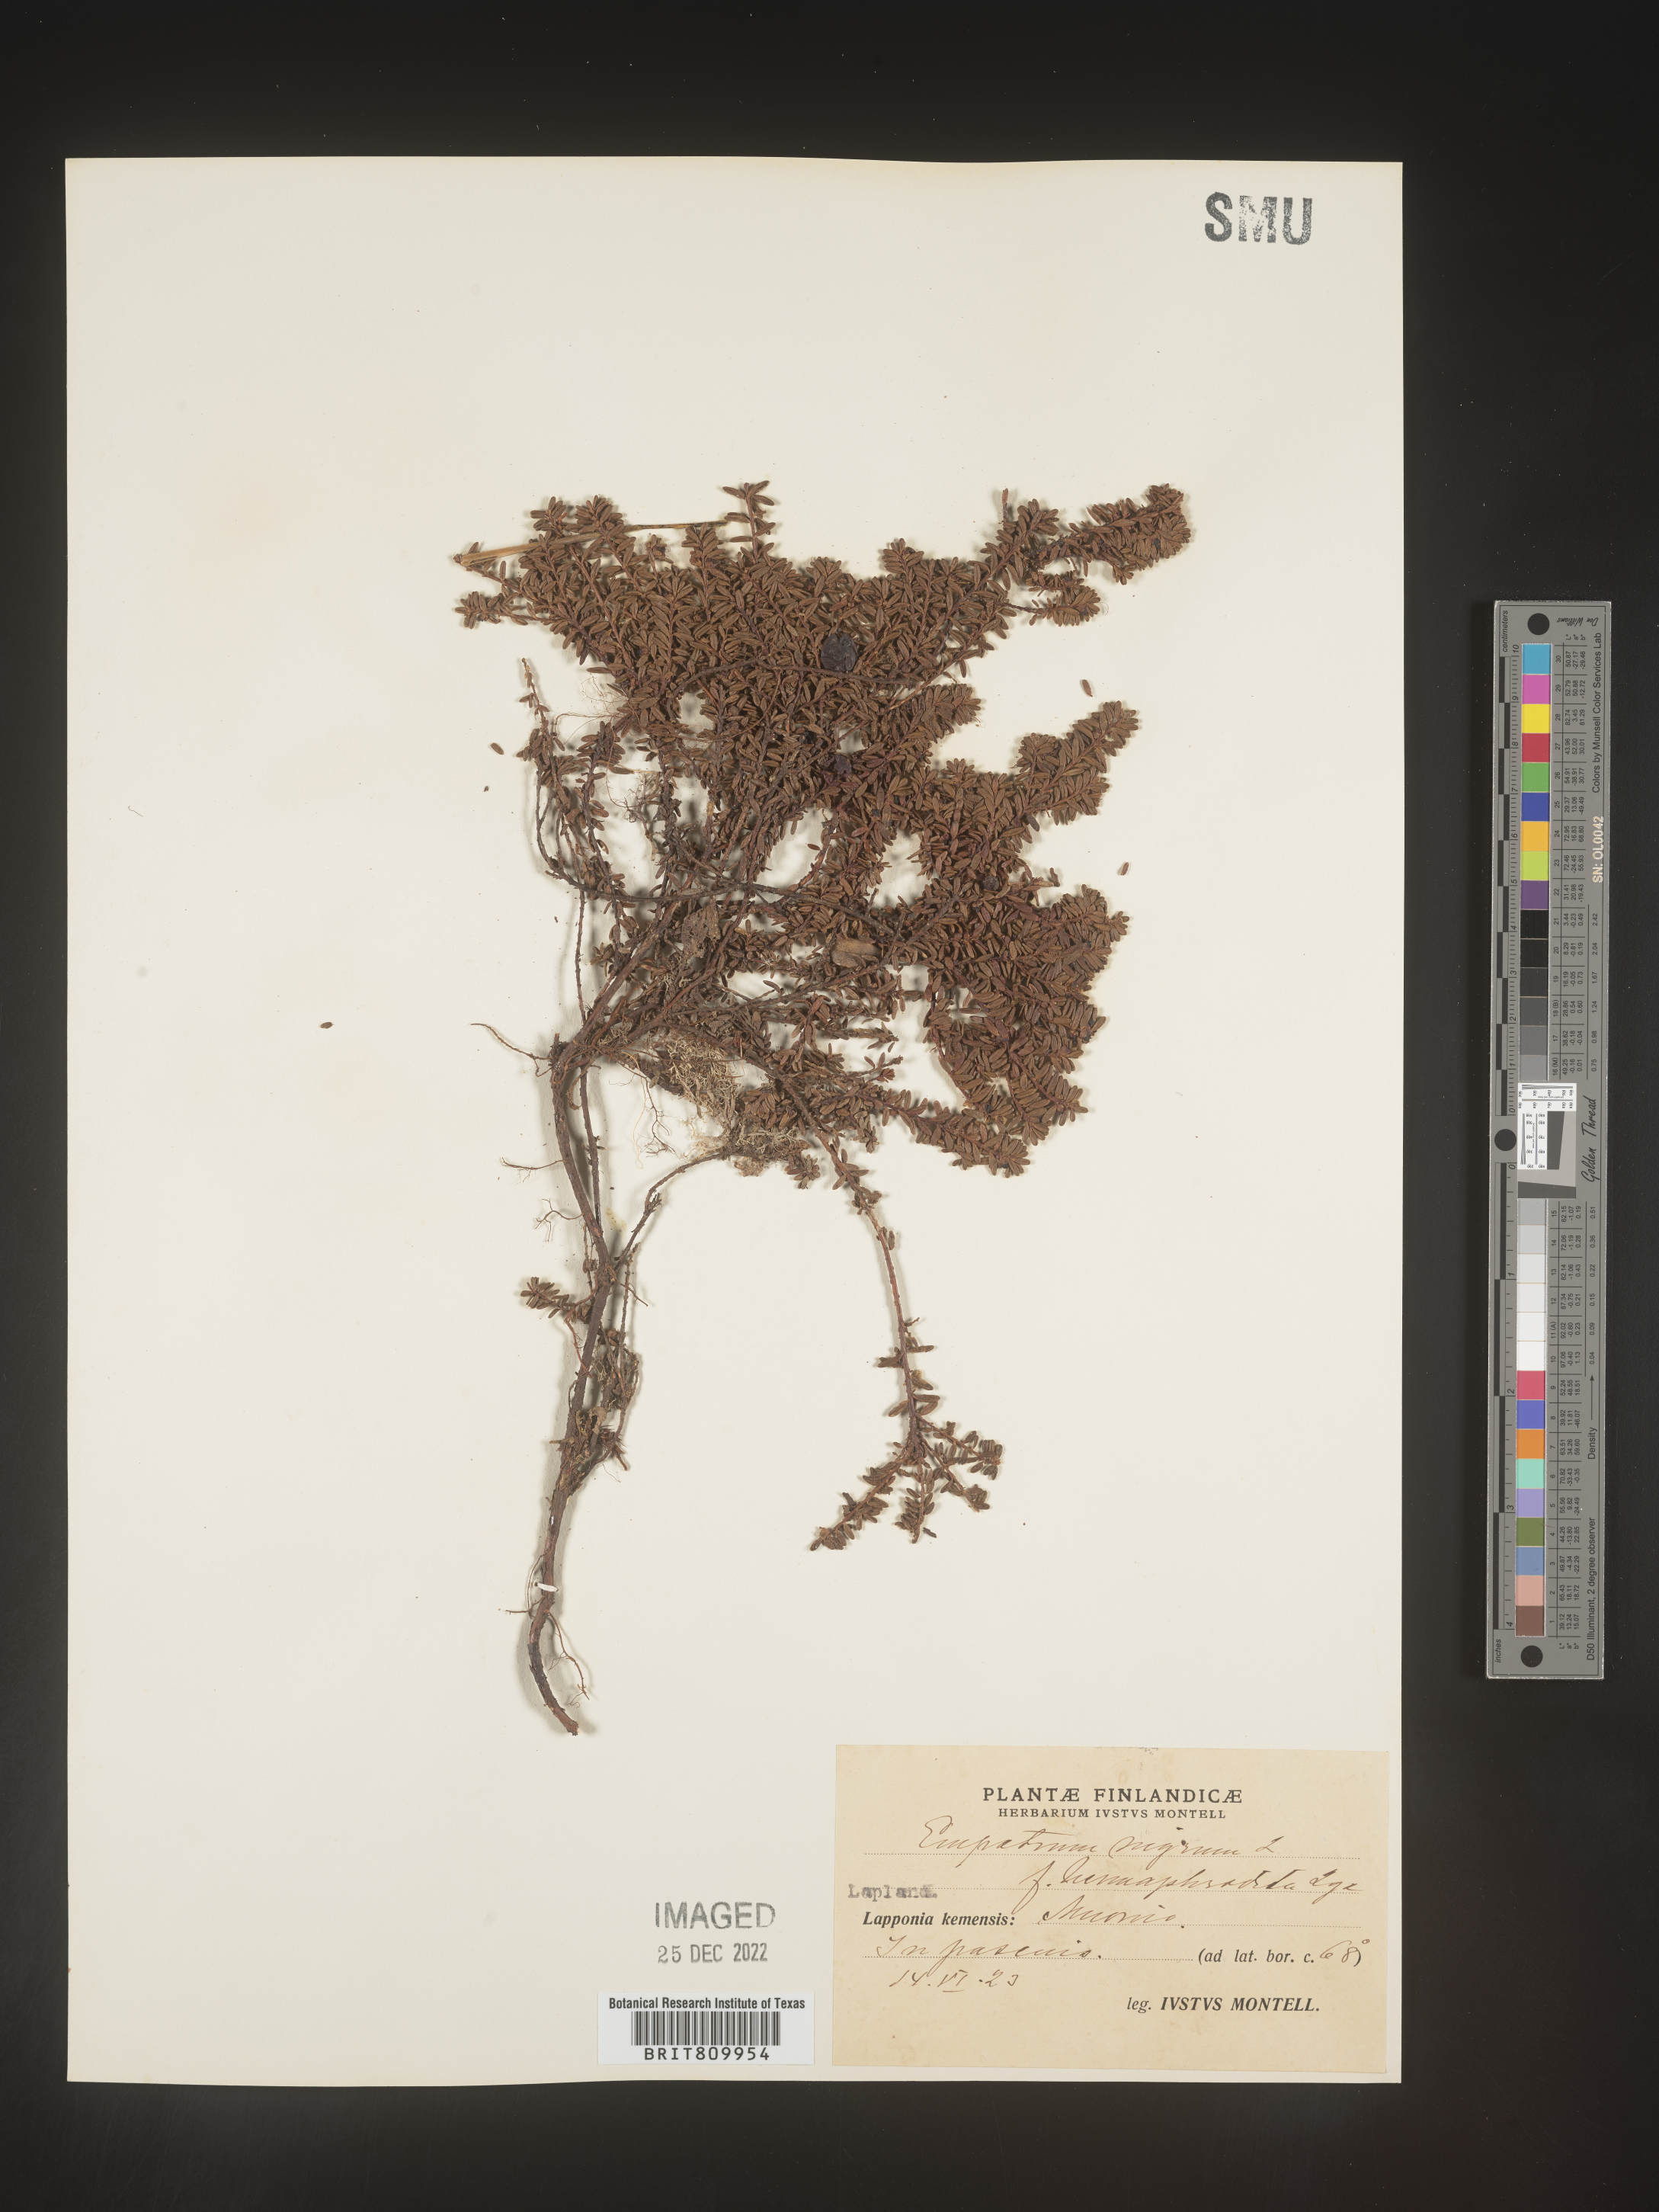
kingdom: Plantae
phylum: Tracheophyta
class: Magnoliopsida
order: Ericales
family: Ericaceae
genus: Empetrum
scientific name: Empetrum
